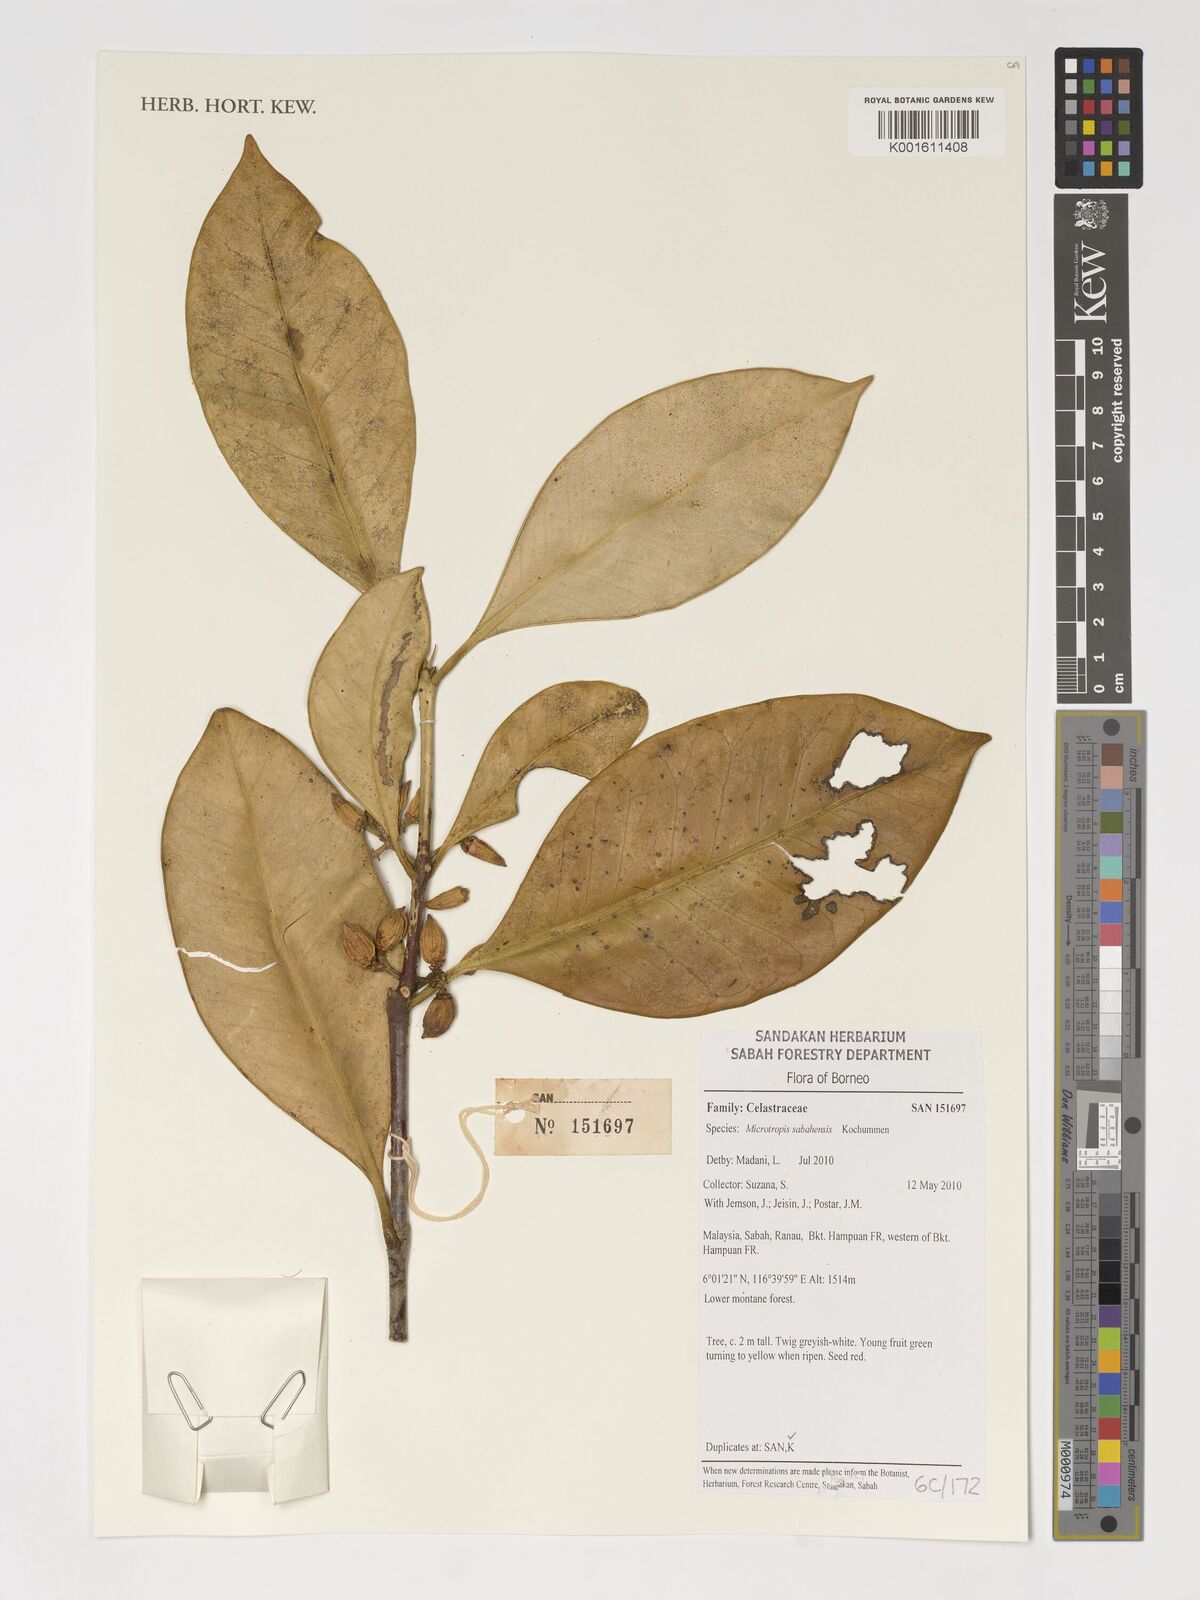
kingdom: Plantae
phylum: Tracheophyta
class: Magnoliopsida
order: Celastrales
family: Celastraceae
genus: Microtropis
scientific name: Microtropis sabahensis
